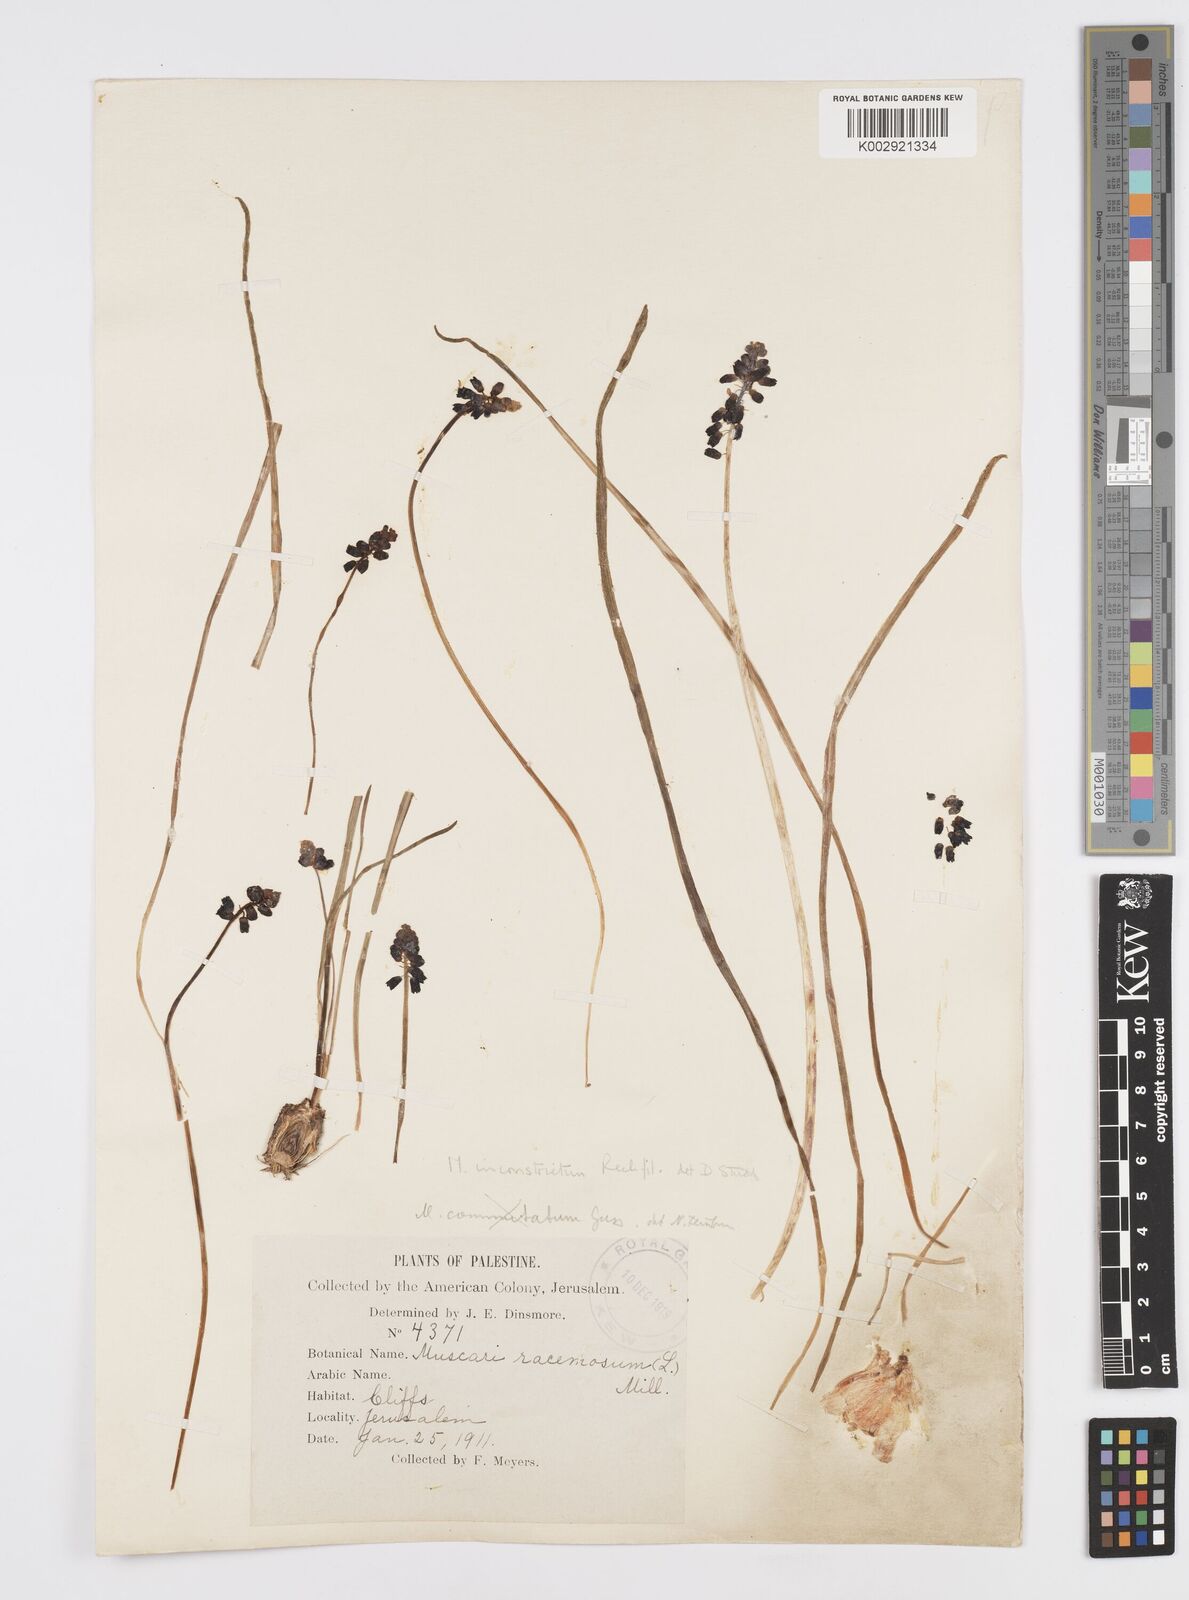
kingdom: Plantae
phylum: Tracheophyta
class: Liliopsida
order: Asparagales
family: Asparagaceae
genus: Muscari
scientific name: Muscari inconstrictum
